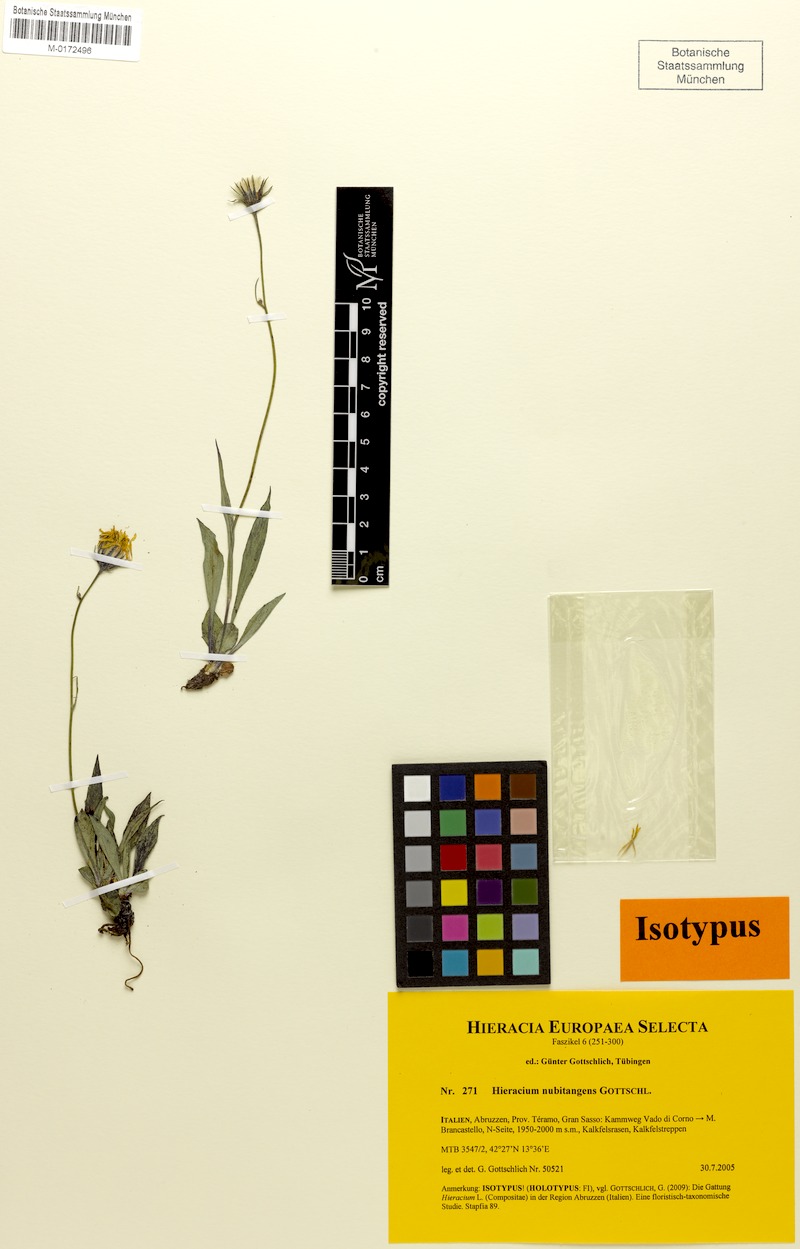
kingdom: Plantae
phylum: Tracheophyta
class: Magnoliopsida
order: Asterales
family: Asteraceae
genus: Hieracium
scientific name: Hieracium nubitangens
